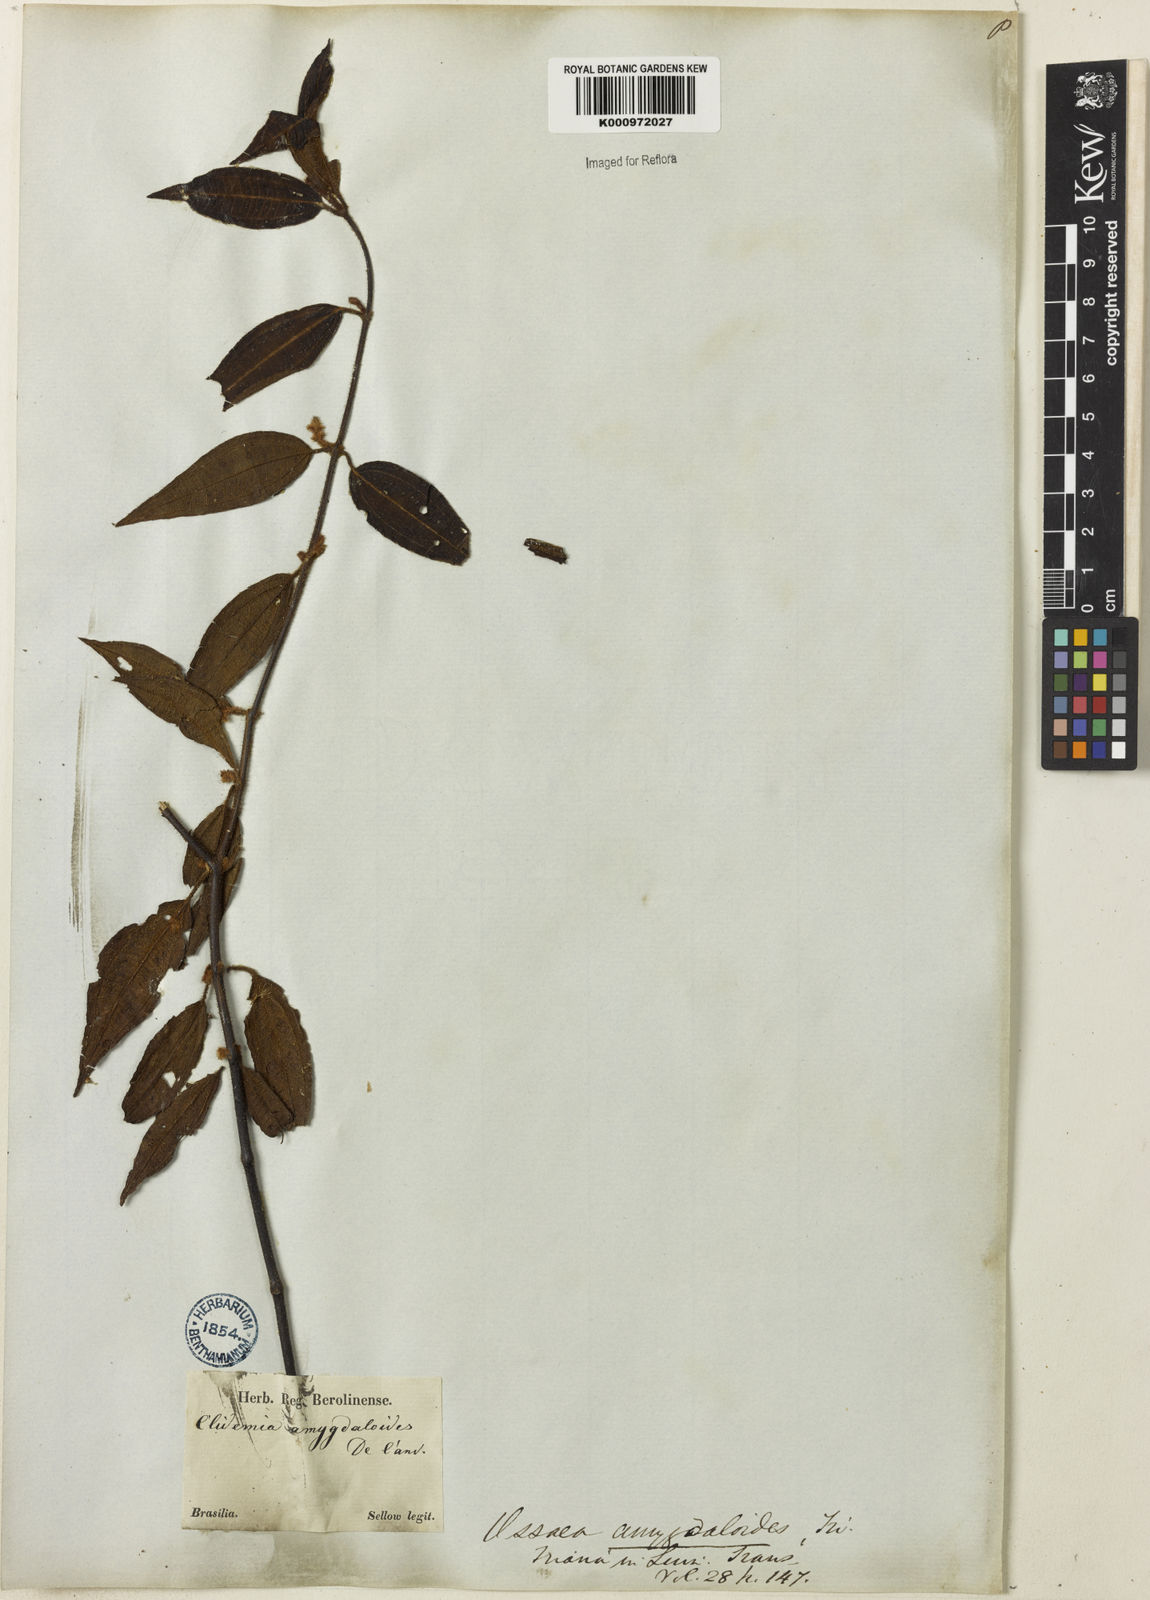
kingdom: Plantae
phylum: Tracheophyta
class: Magnoliopsida
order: Myrtales
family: Melastomataceae
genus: Miconia
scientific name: Miconia amygdaloides
